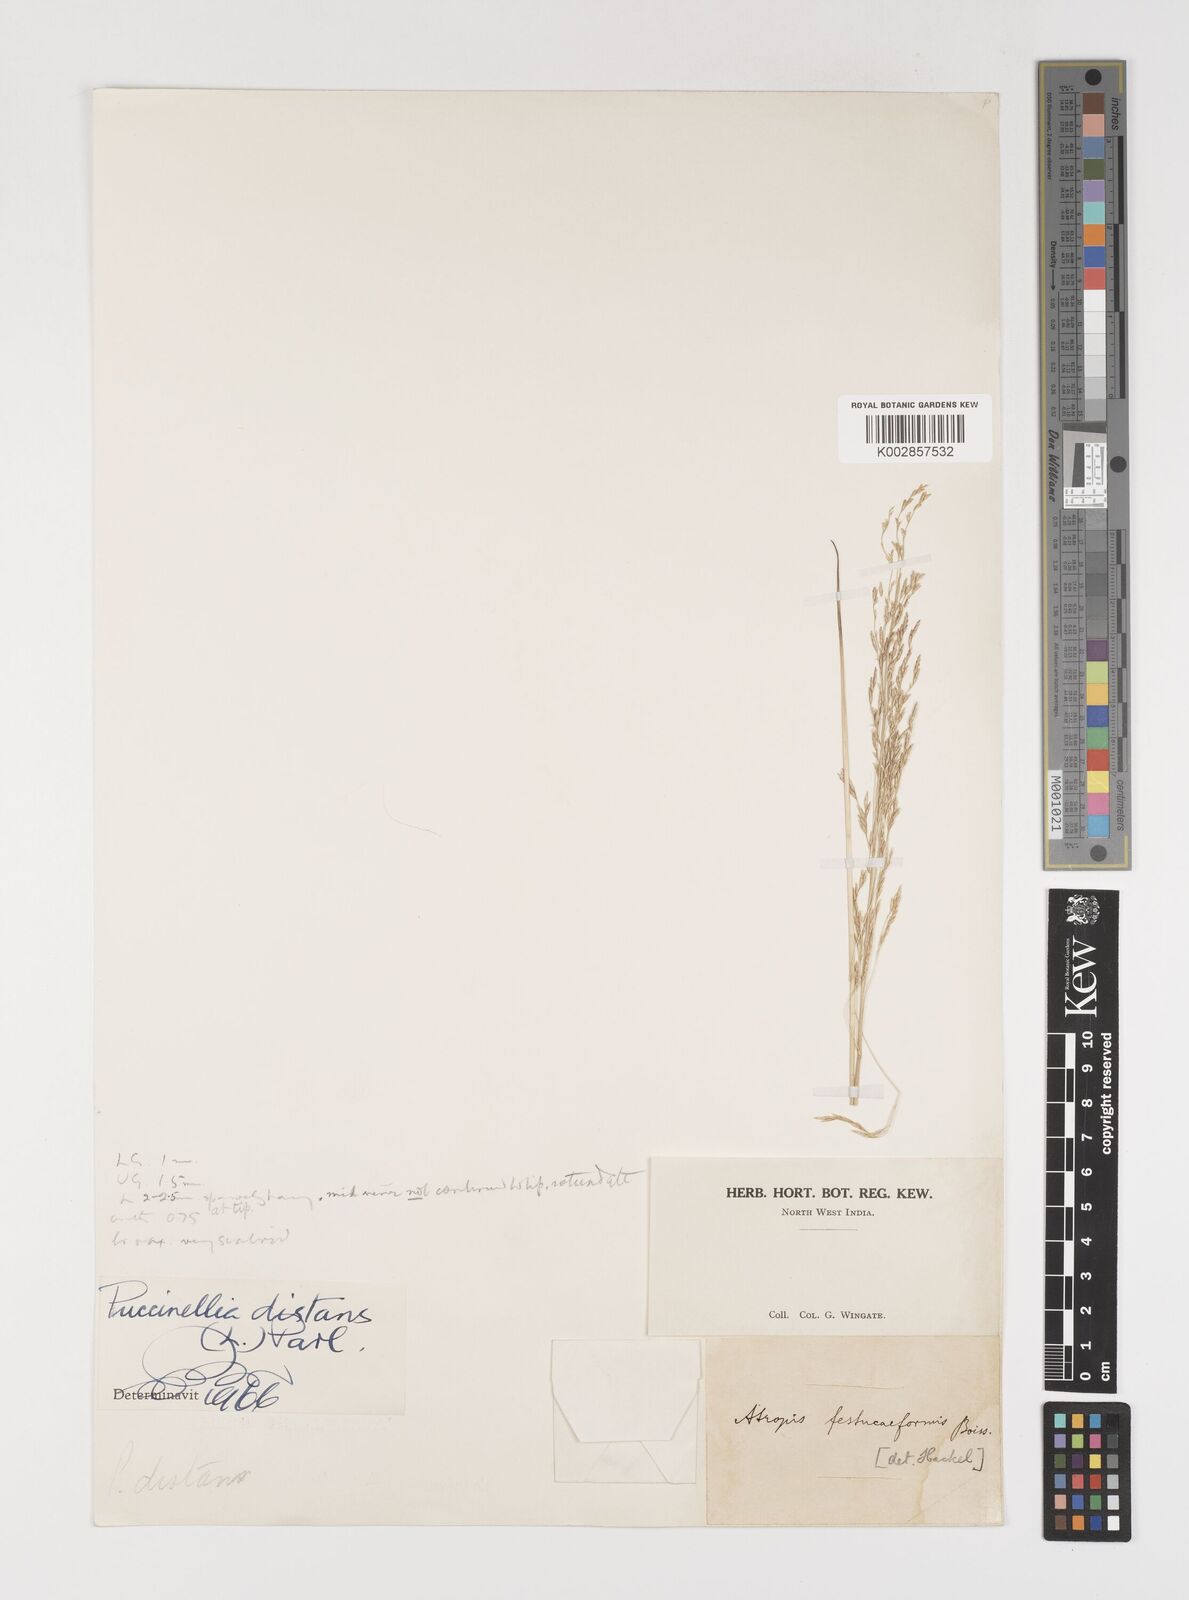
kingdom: Plantae
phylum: Tracheophyta
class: Liliopsida
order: Poales
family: Poaceae
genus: Puccinellia
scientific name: Puccinellia distans
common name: Weeping alkaligrass
